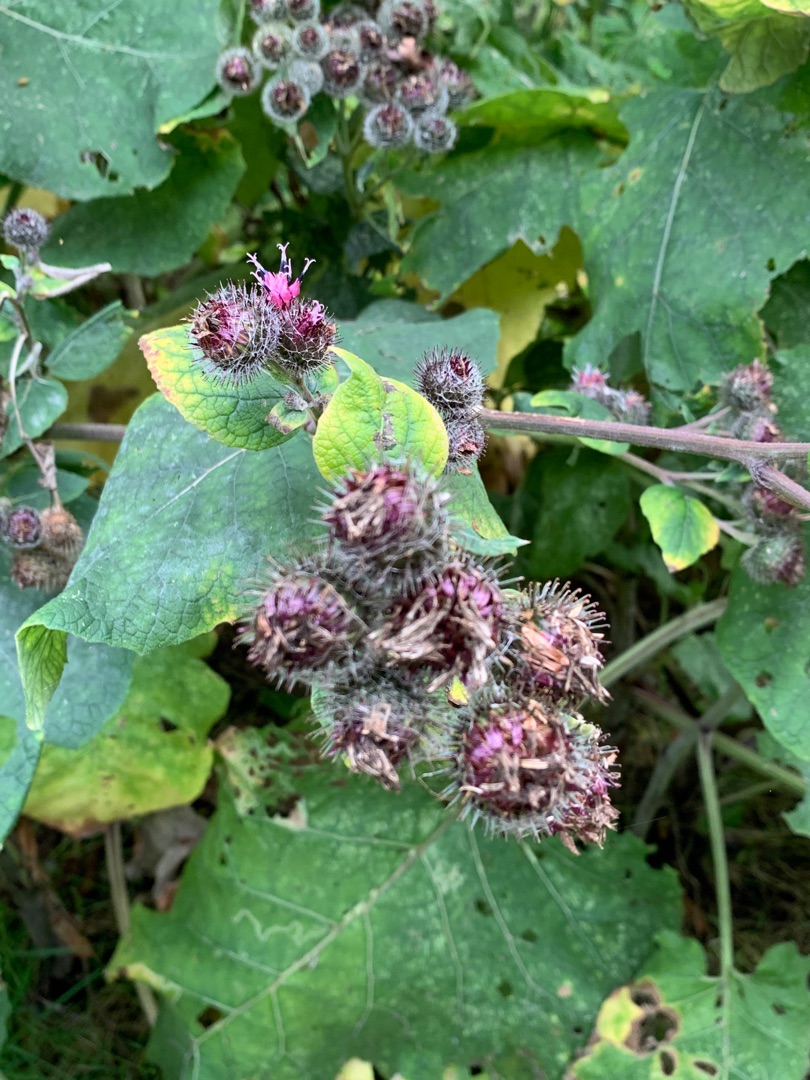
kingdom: Plantae
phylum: Tracheophyta
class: Magnoliopsida
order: Asterales
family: Asteraceae
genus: Arctium
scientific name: Arctium tomentosum
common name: Filtet burre
